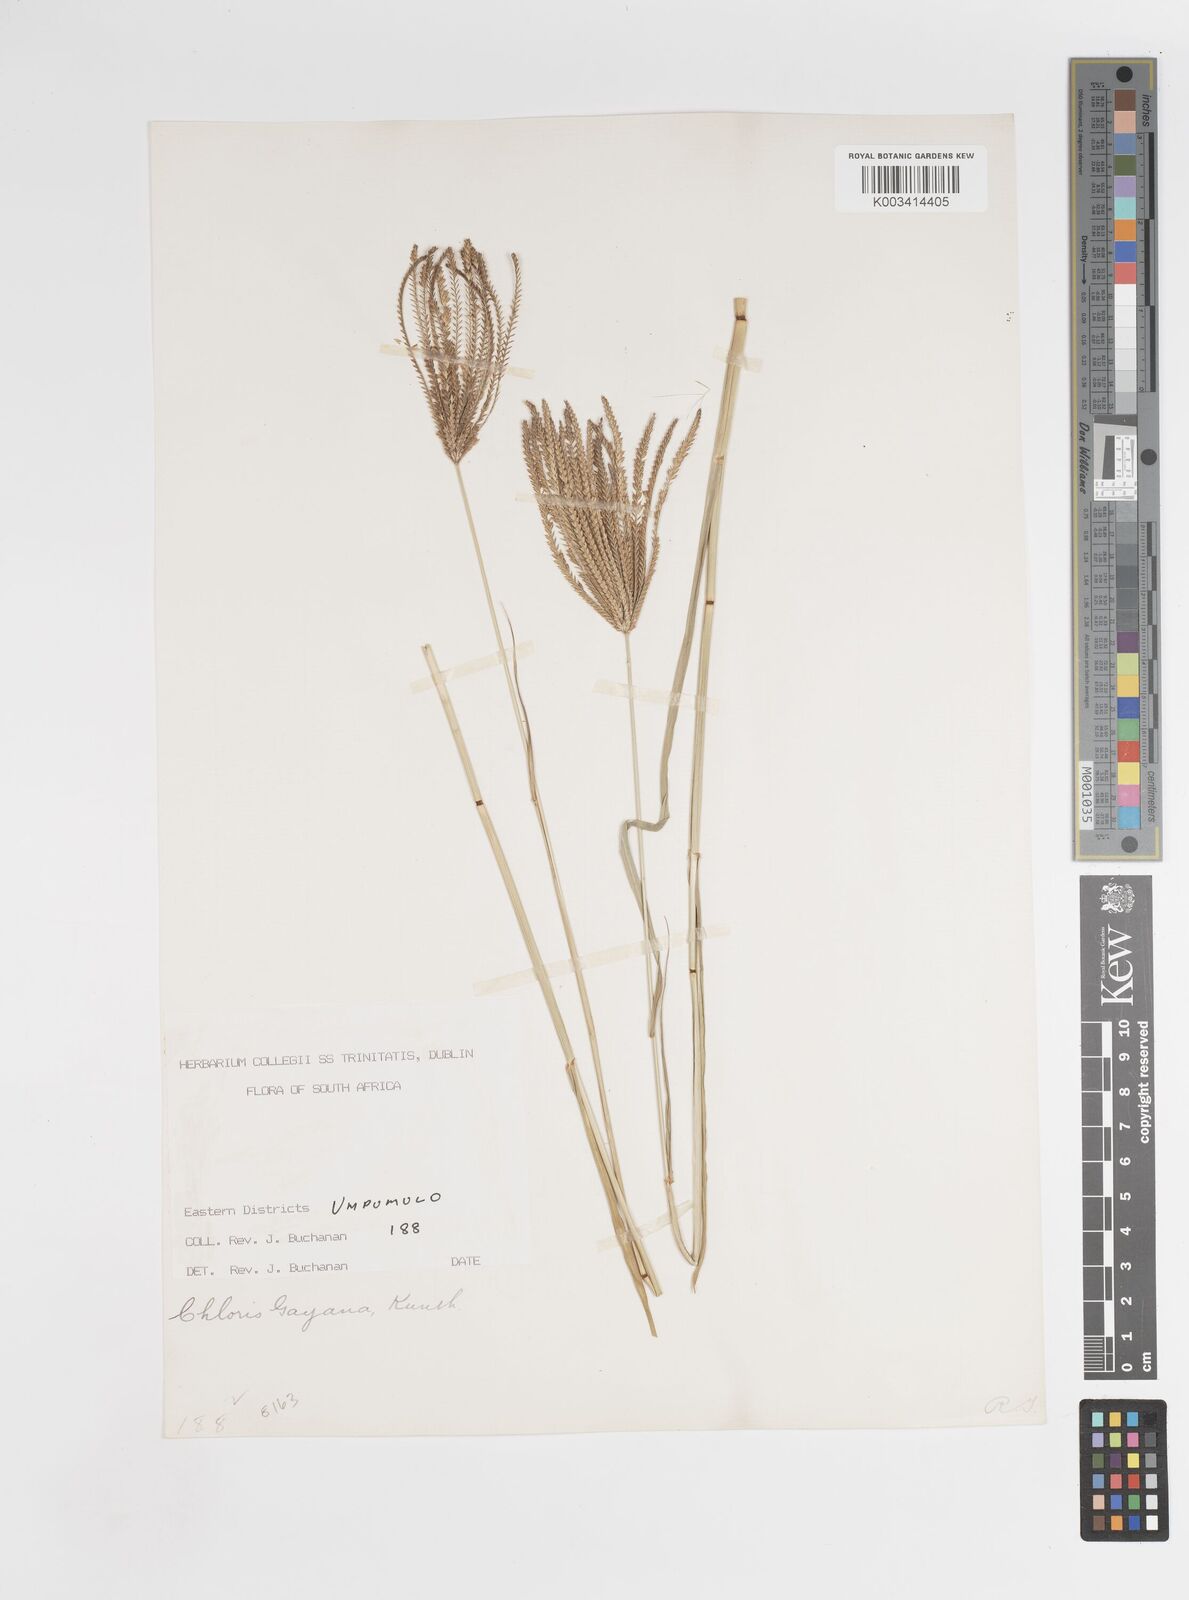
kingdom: Plantae
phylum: Tracheophyta
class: Liliopsida
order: Poales
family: Poaceae
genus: Chloris
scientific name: Chloris gayana
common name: Rhodes grass
